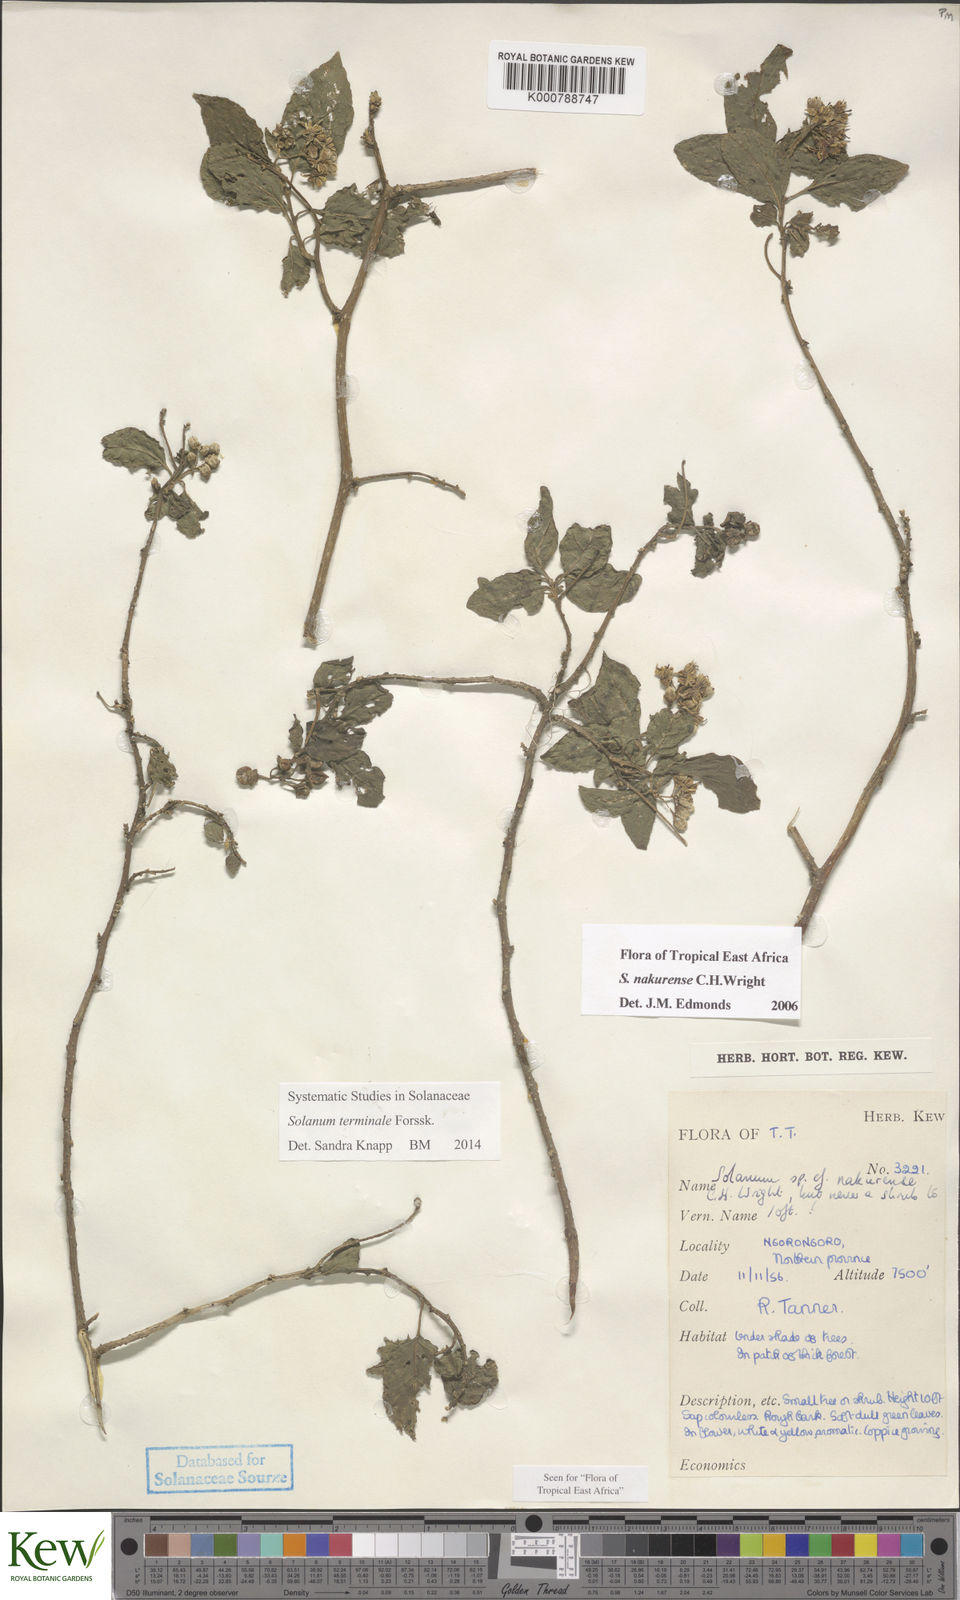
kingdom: Plantae
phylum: Tracheophyta
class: Magnoliopsida
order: Solanales
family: Solanaceae
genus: Solanum
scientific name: Solanum terminale
